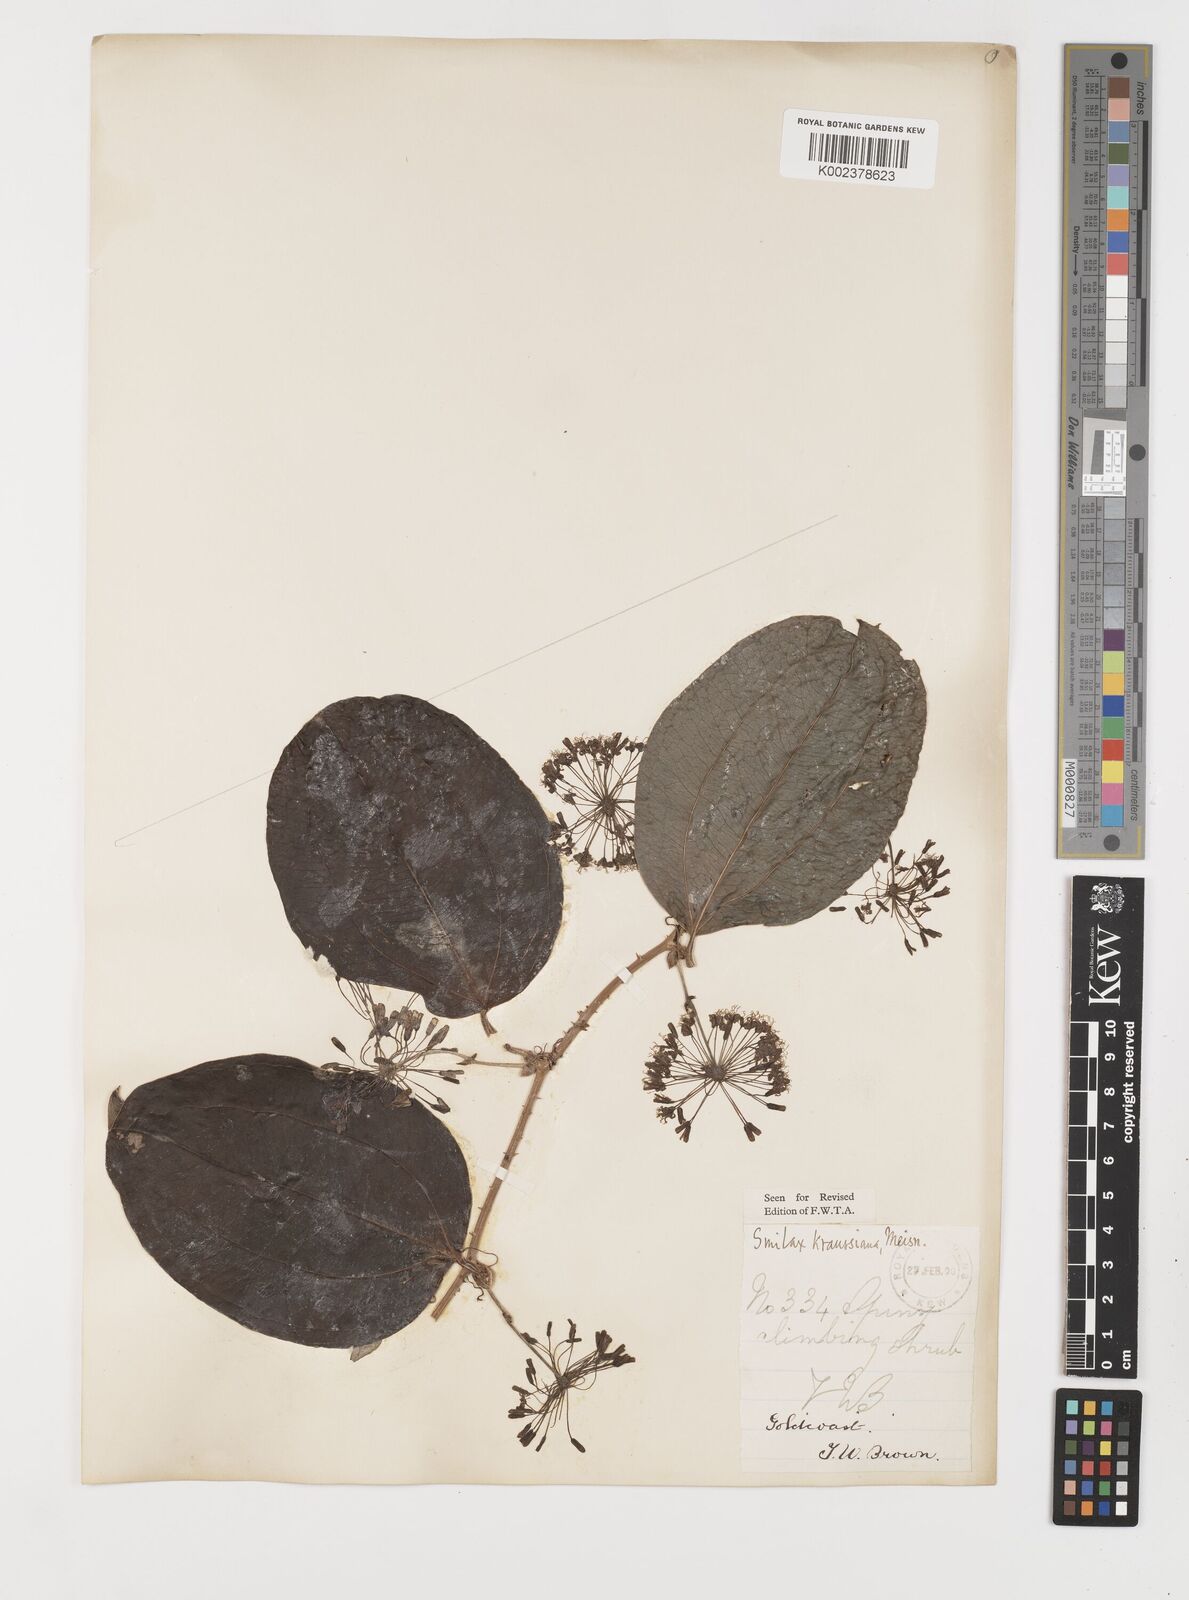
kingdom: Plantae
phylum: Tracheophyta
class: Liliopsida
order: Liliales
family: Smilacaceae
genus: Smilax
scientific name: Smilax anceps
